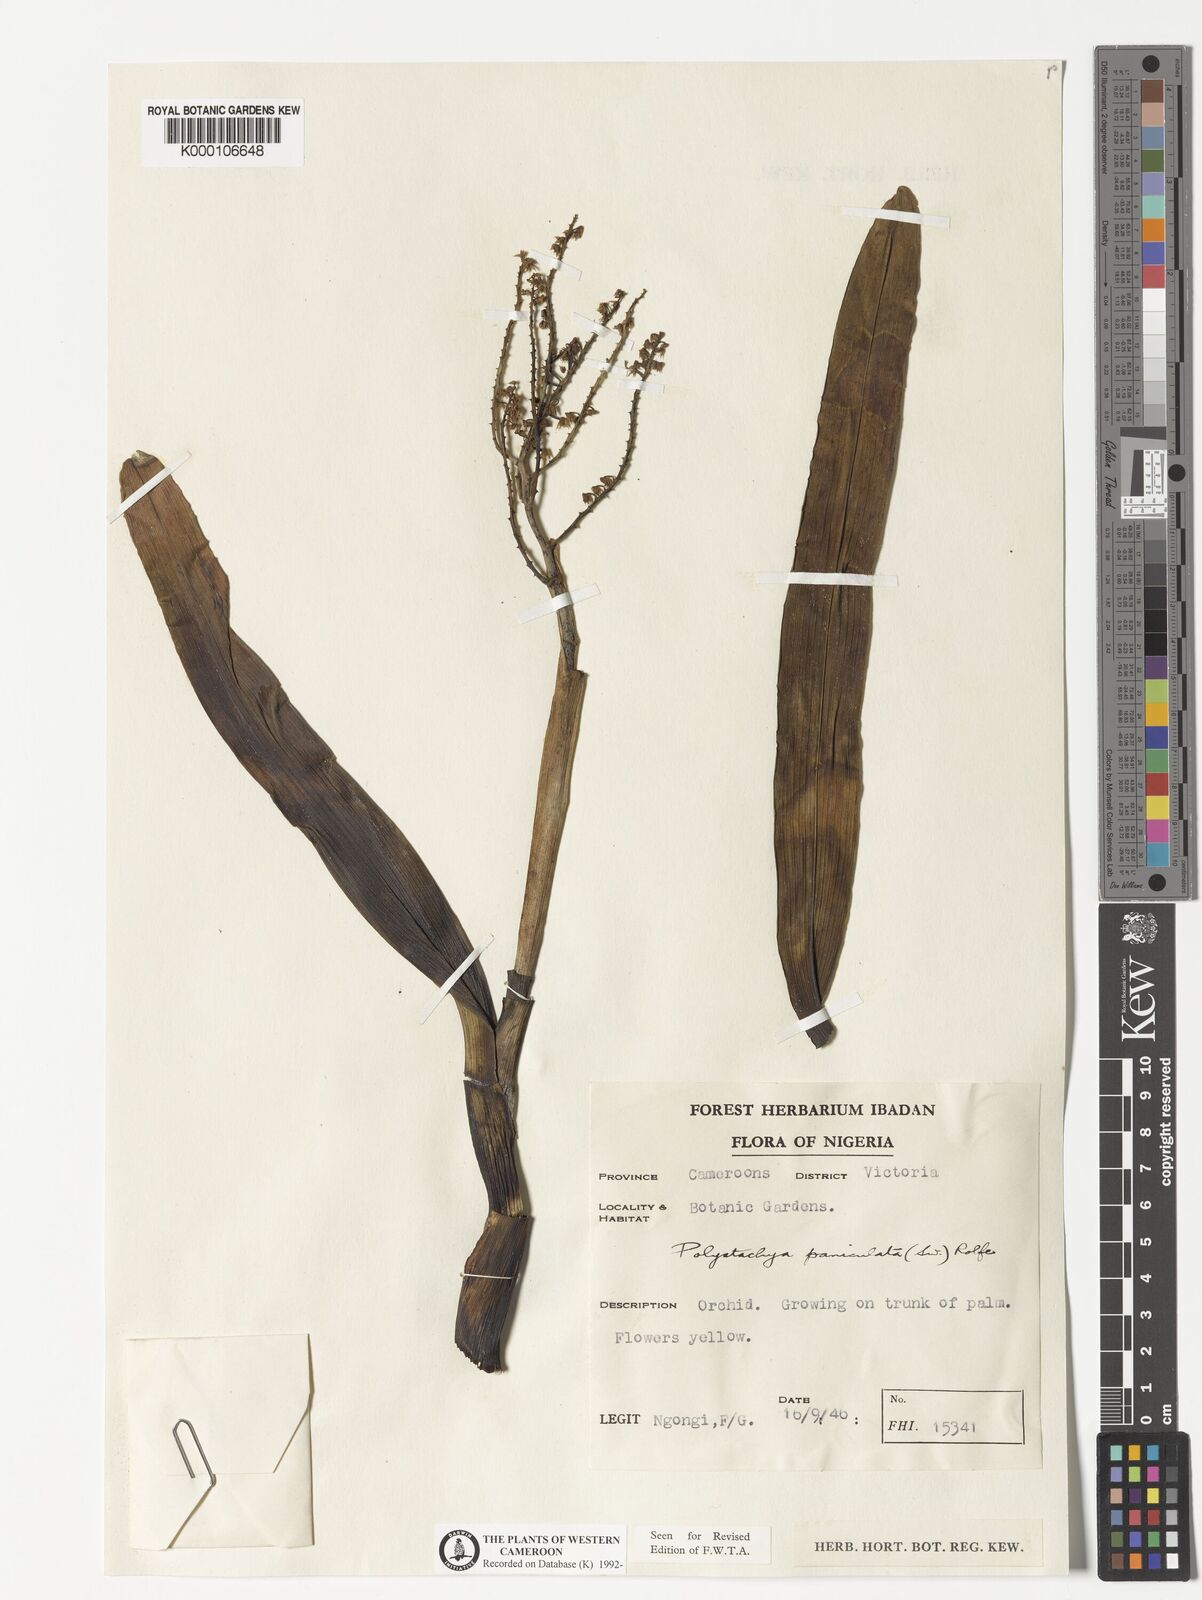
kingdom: Plantae
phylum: Tracheophyta
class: Liliopsida
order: Asparagales
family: Orchidaceae
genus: Polystachya
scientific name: Polystachya paniculata
